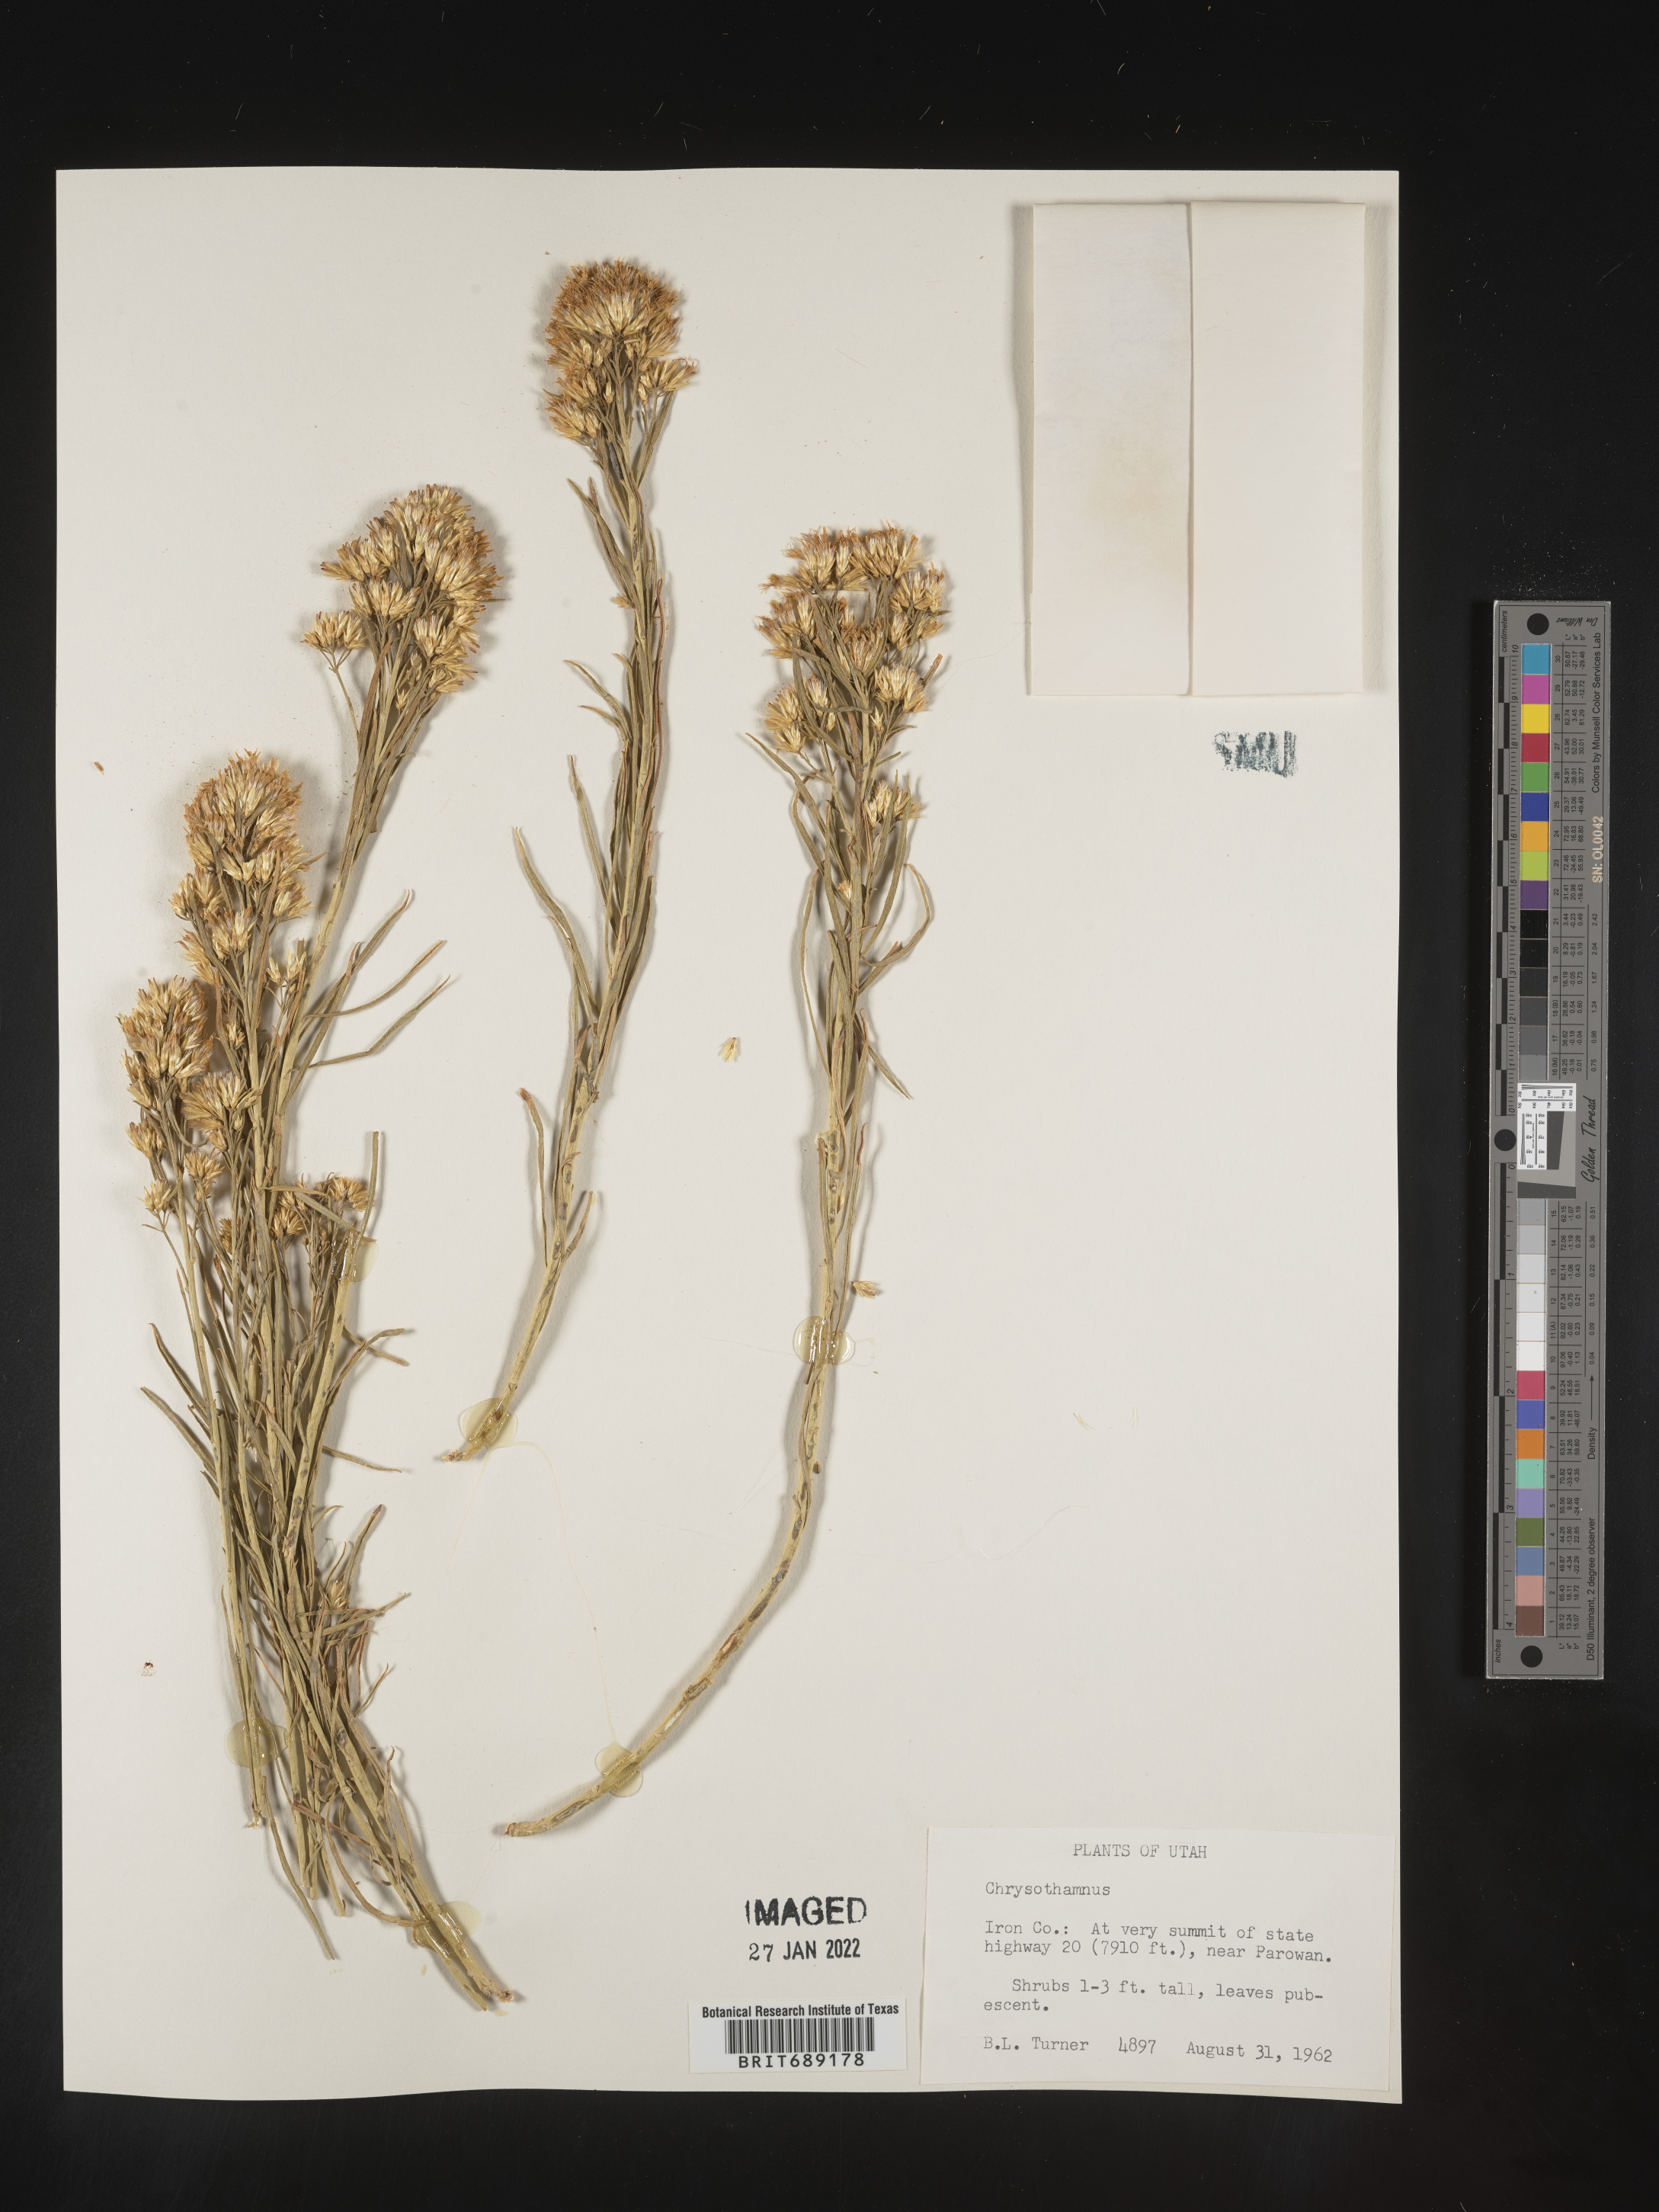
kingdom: Plantae
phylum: Tracheophyta
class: Magnoliopsida
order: Asterales
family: Asteraceae
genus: Chrysothamnus
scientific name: Chrysothamnus
